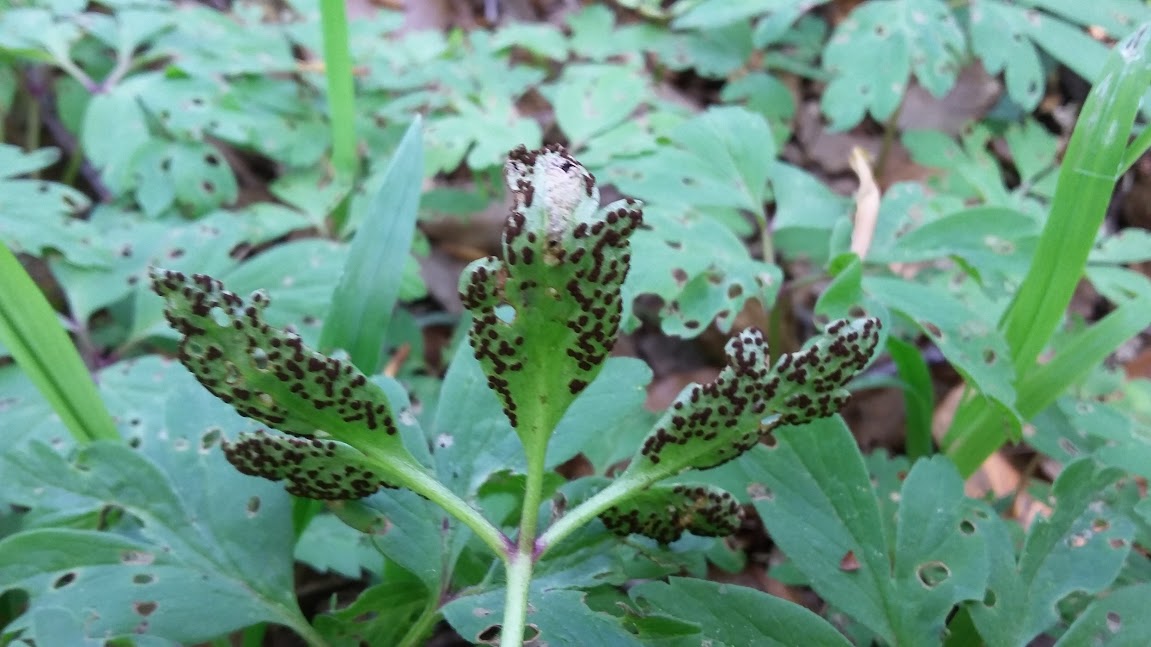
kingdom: Fungi
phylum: Basidiomycota
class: Pucciniomycetes
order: Pucciniales
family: Tranzscheliaceae
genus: Tranzschelia
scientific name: Tranzschelia anemones
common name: anemone-knæksporerust
